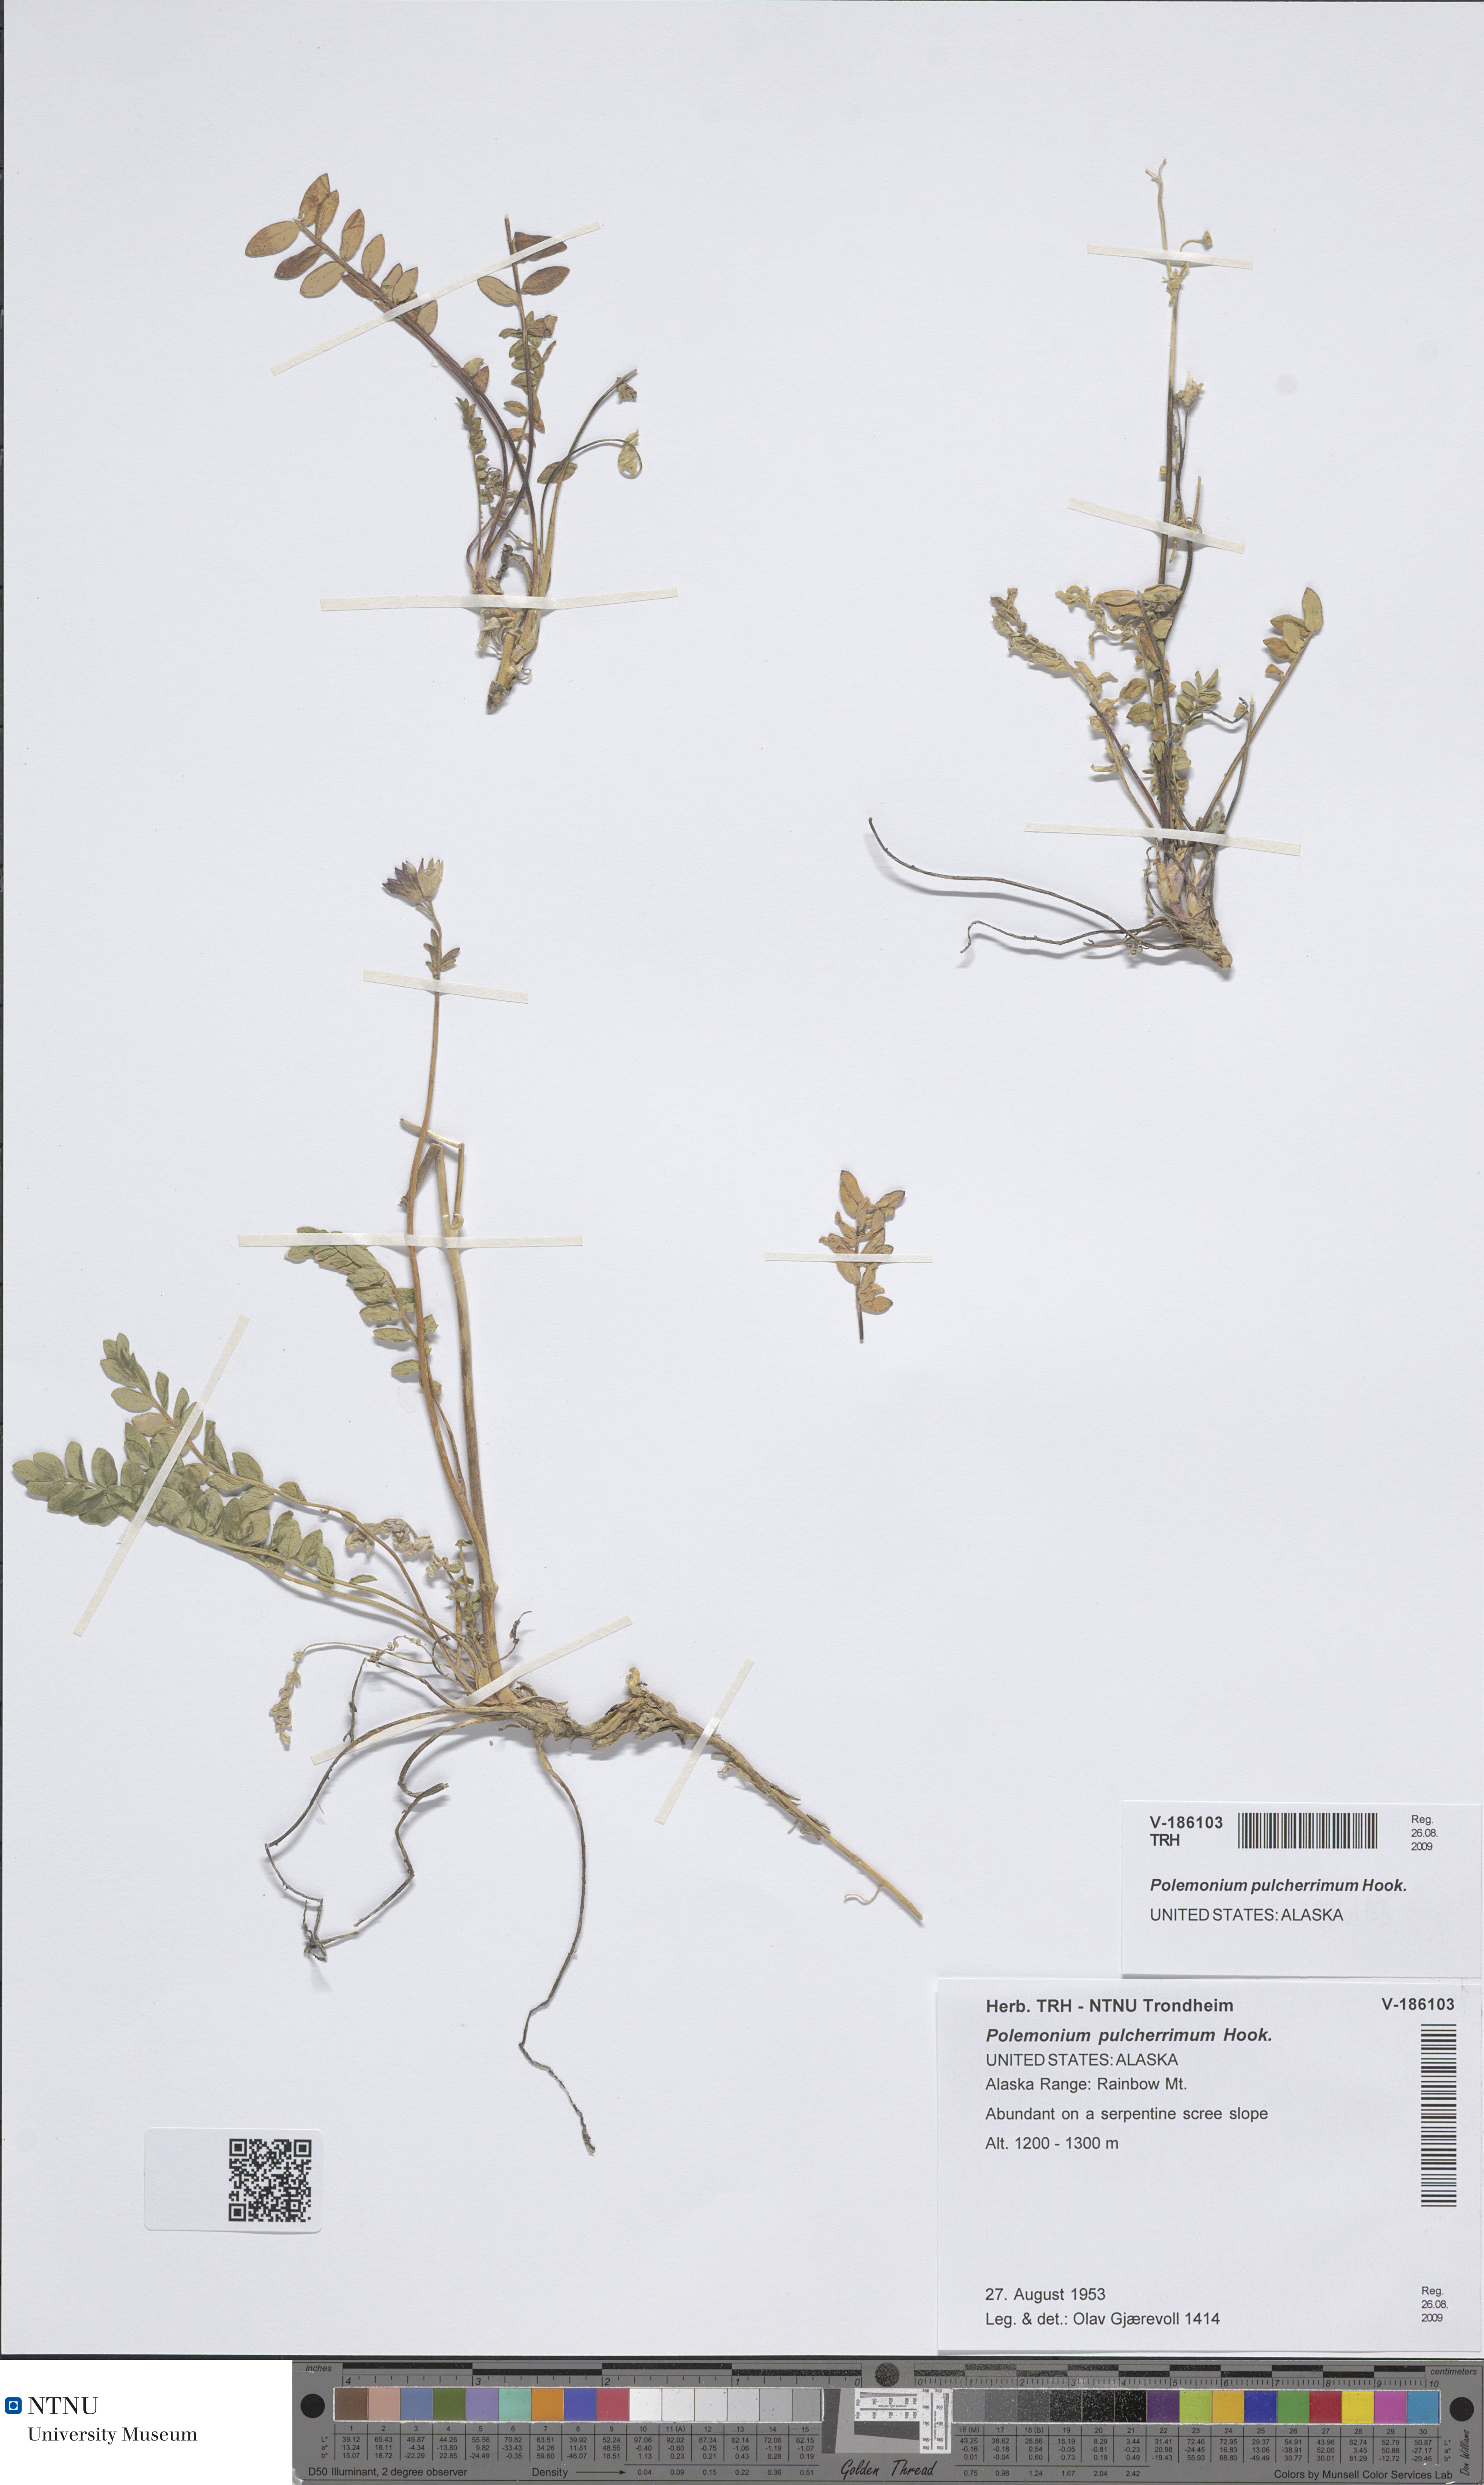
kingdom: Plantae
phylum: Tracheophyta
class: Magnoliopsida
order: Ericales
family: Polemoniaceae
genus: Polemonium
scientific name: Polemonium pulcherrimum
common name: Short jacob's-ladder
